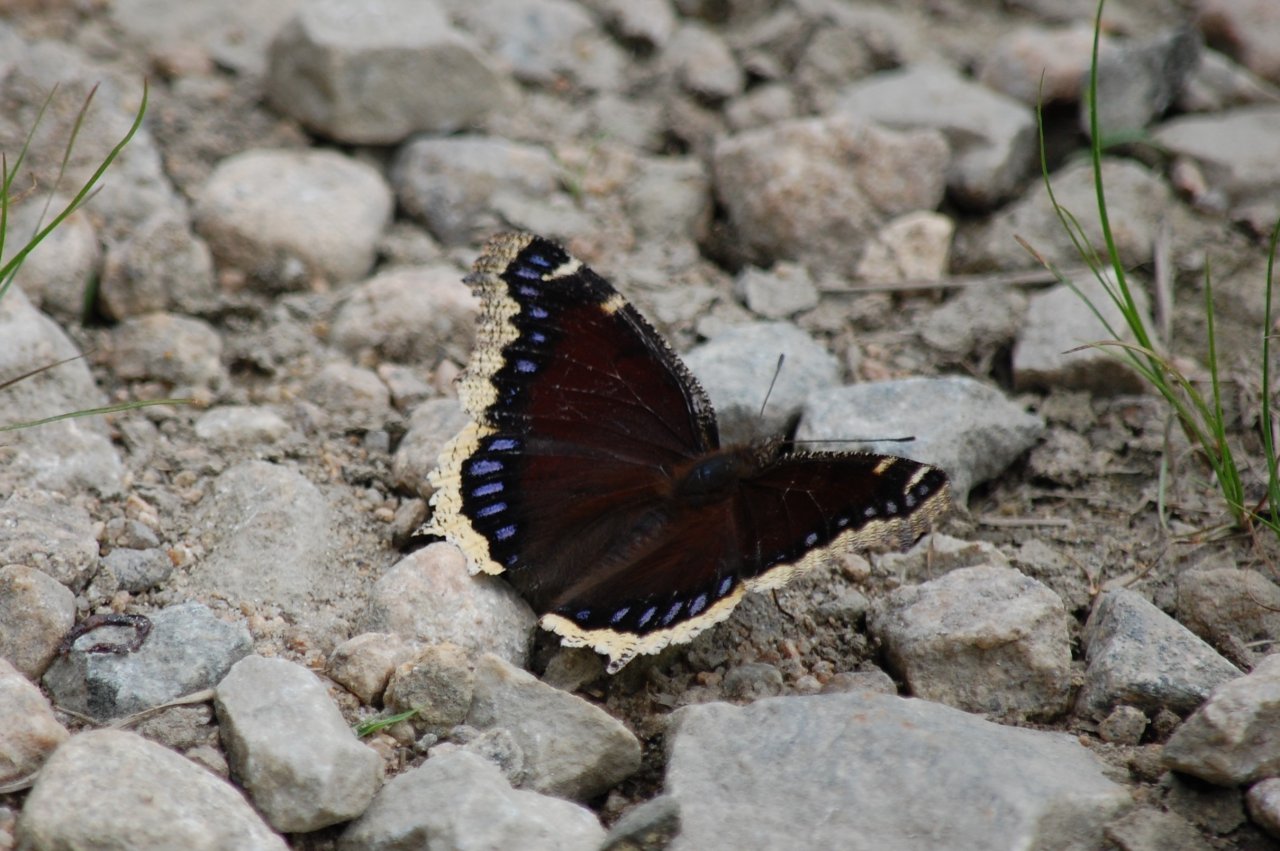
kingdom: Animalia
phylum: Arthropoda
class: Insecta
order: Lepidoptera
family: Nymphalidae
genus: Nymphalis
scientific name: Nymphalis antiopa
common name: Mourning Cloak
